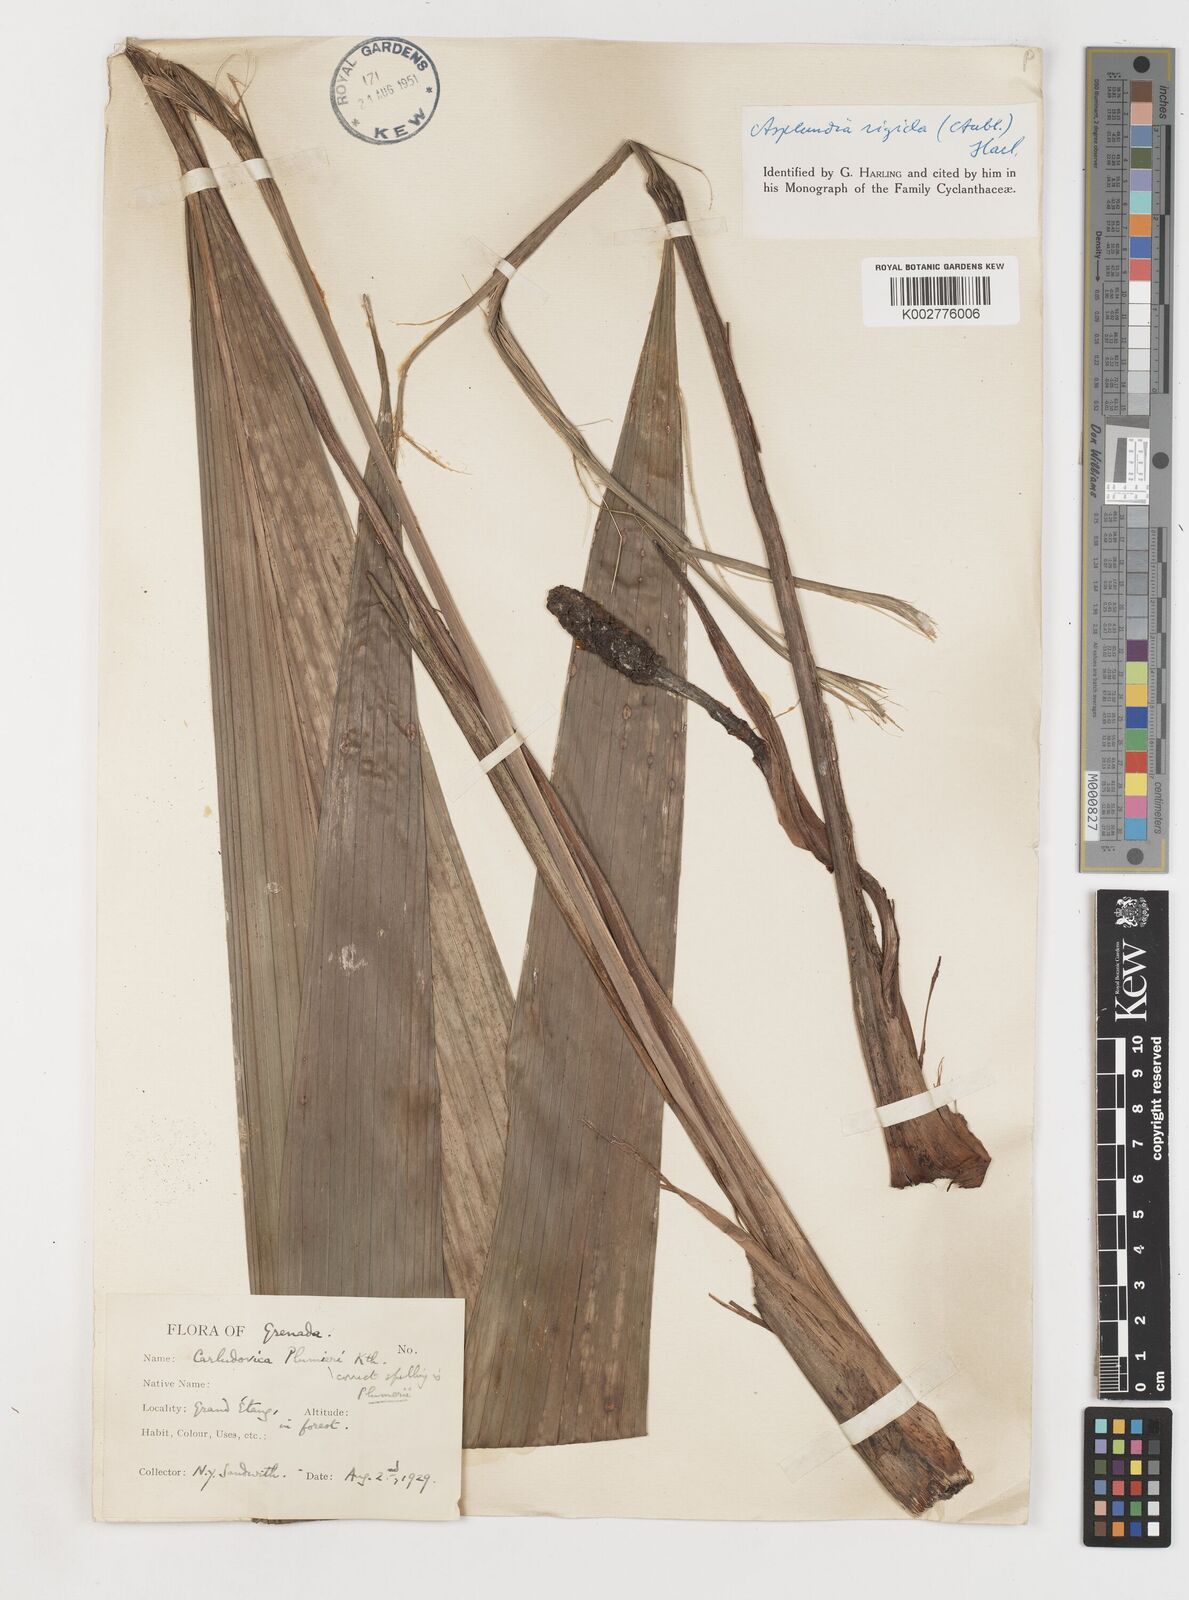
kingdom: Plantae
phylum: Tracheophyta
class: Liliopsida
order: Pandanales
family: Cyclanthaceae
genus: Asplundia
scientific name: Asplundia rigida
